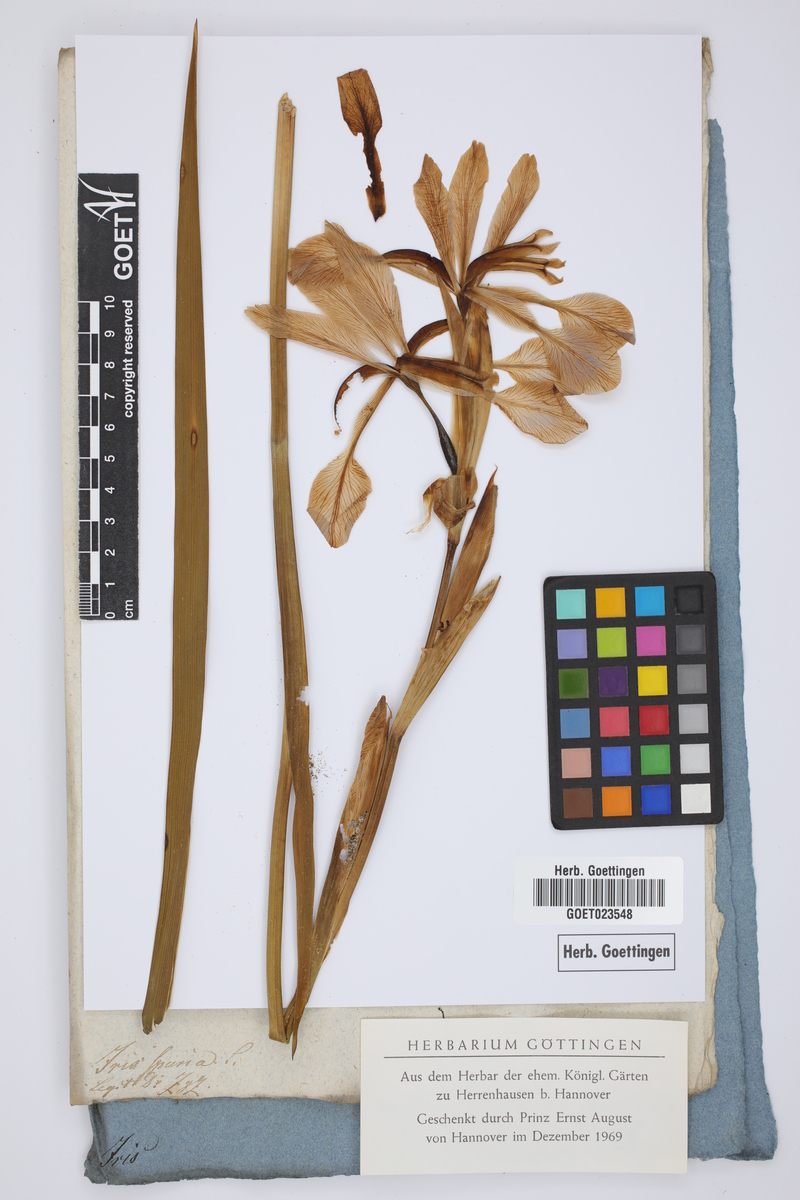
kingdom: Plantae
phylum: Tracheophyta
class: Liliopsida
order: Asparagales
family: Iridaceae
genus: Iris
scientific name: Iris spuria
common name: Blue iris
